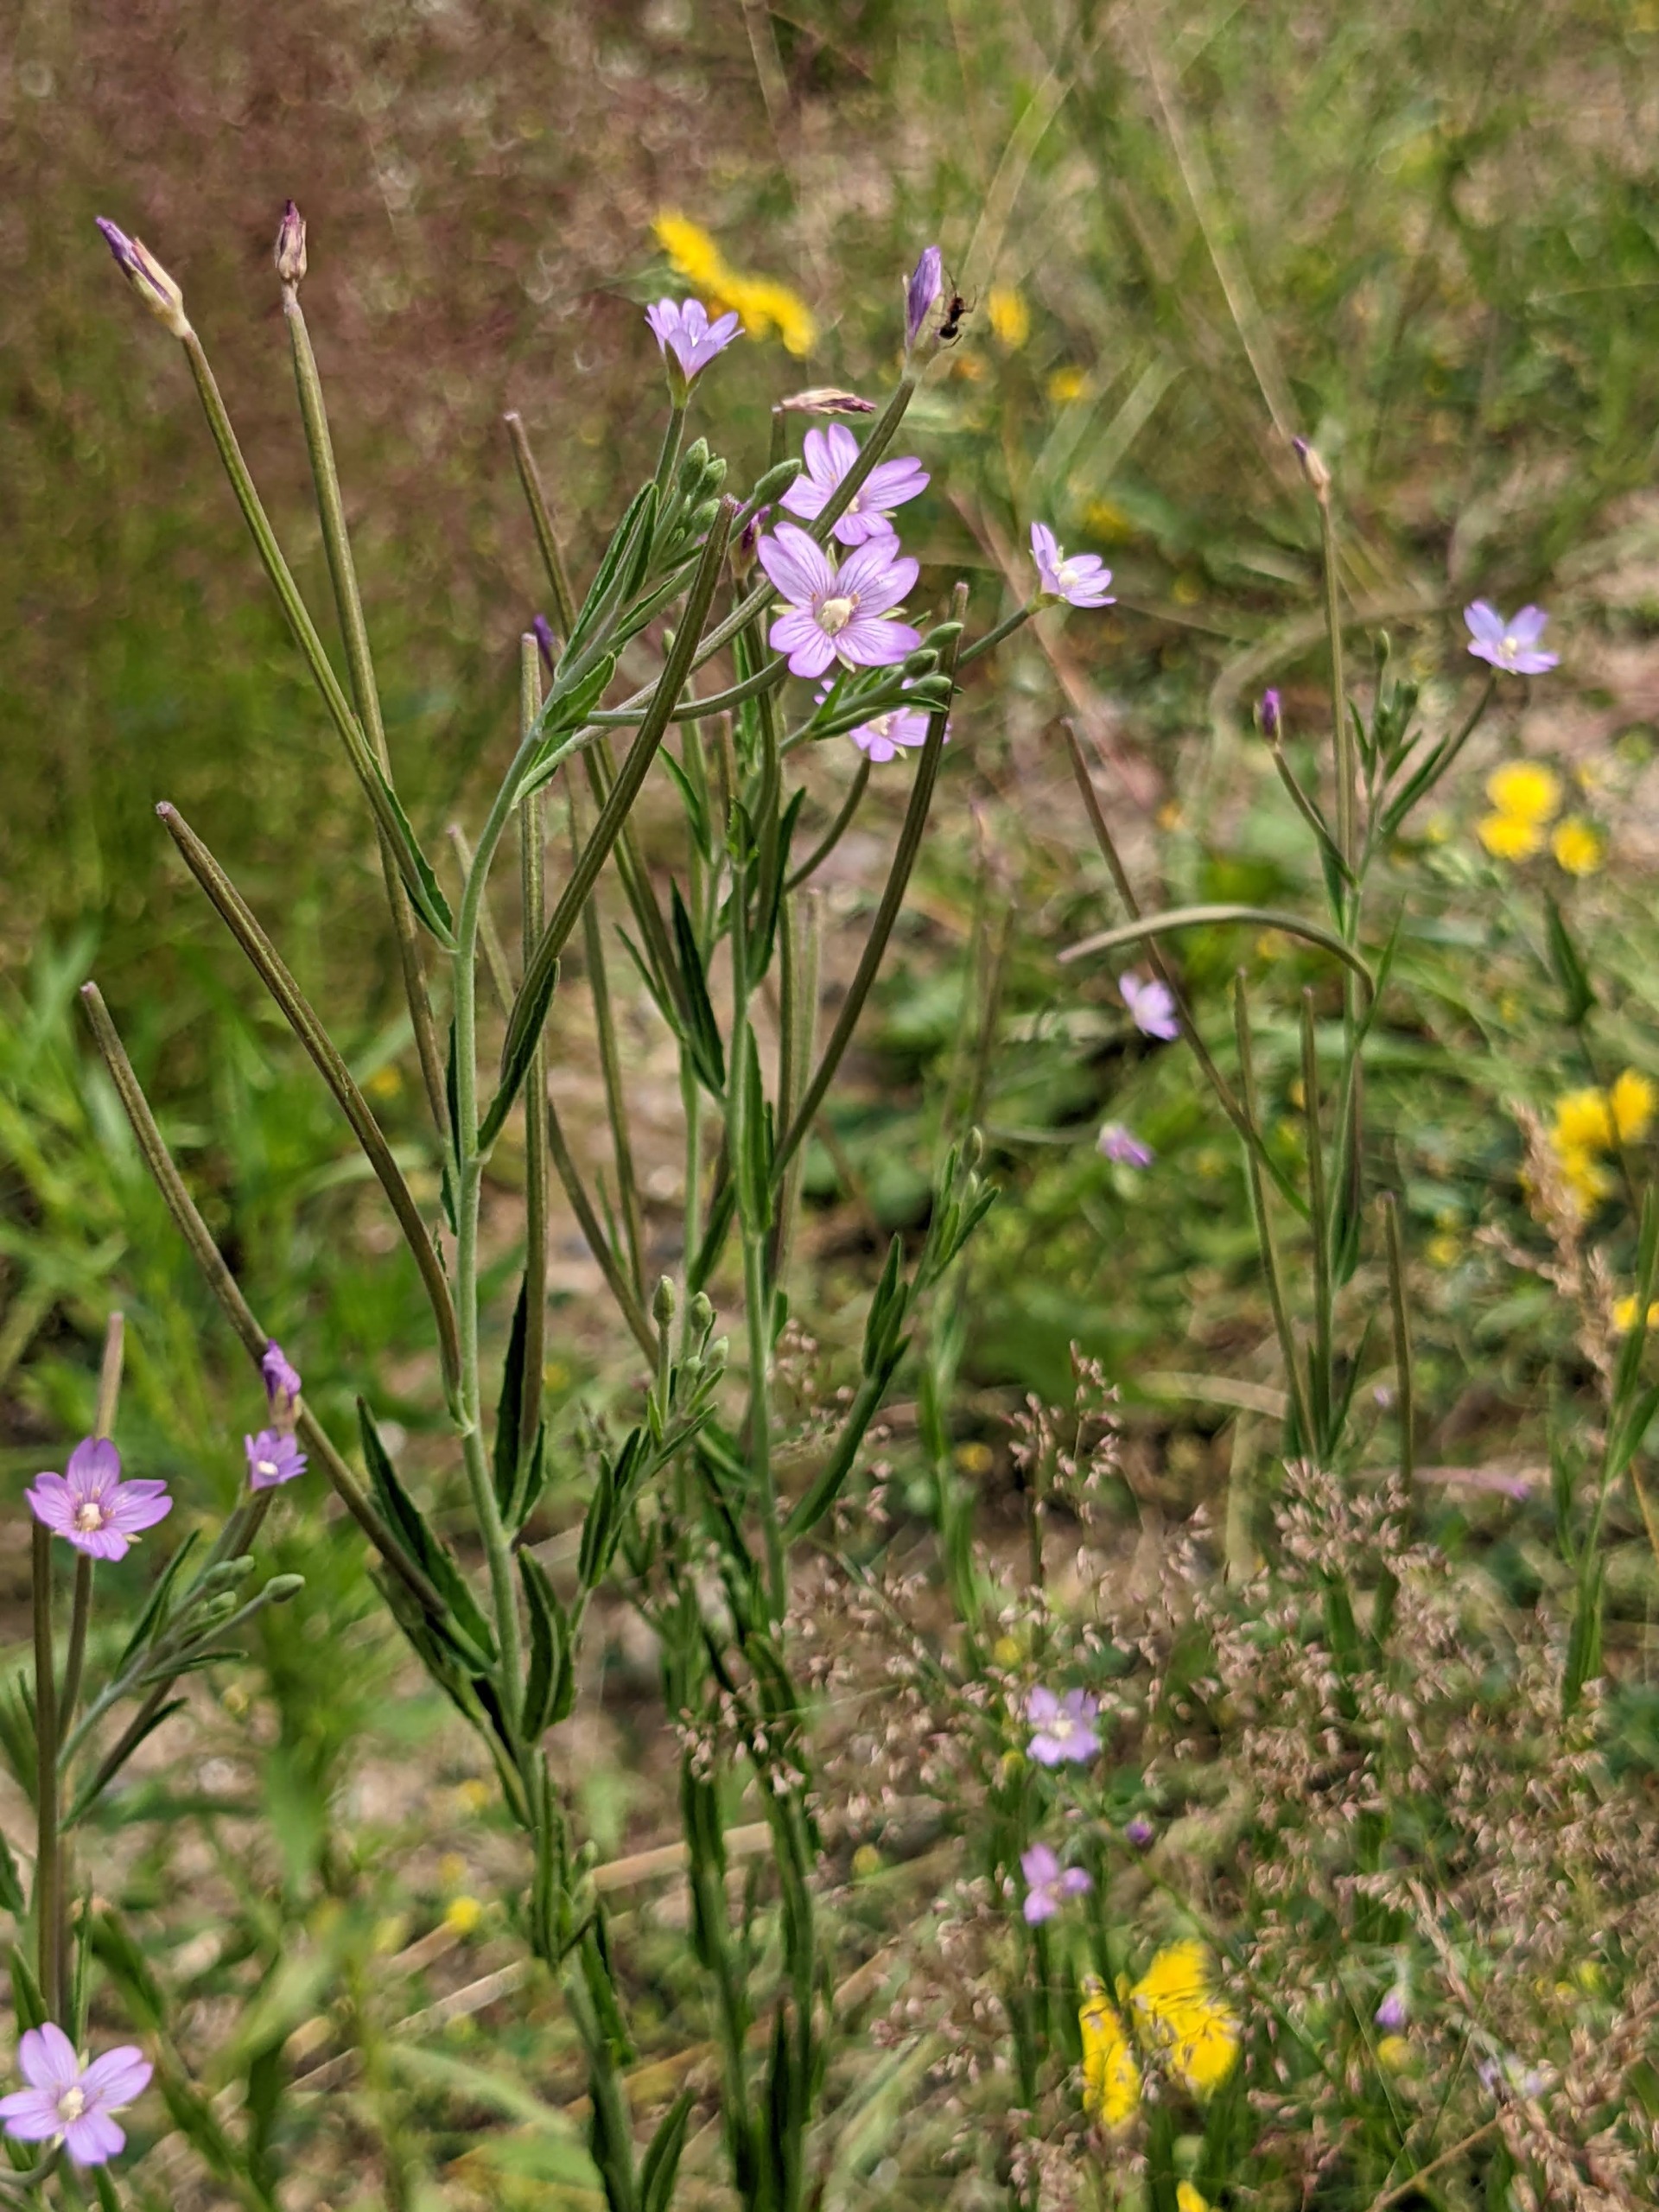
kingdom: Plantae
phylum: Tracheophyta
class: Magnoliopsida
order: Myrtales
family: Onagraceae
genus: Epilobium
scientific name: Epilobium tetragonum
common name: Kantet dueurt
